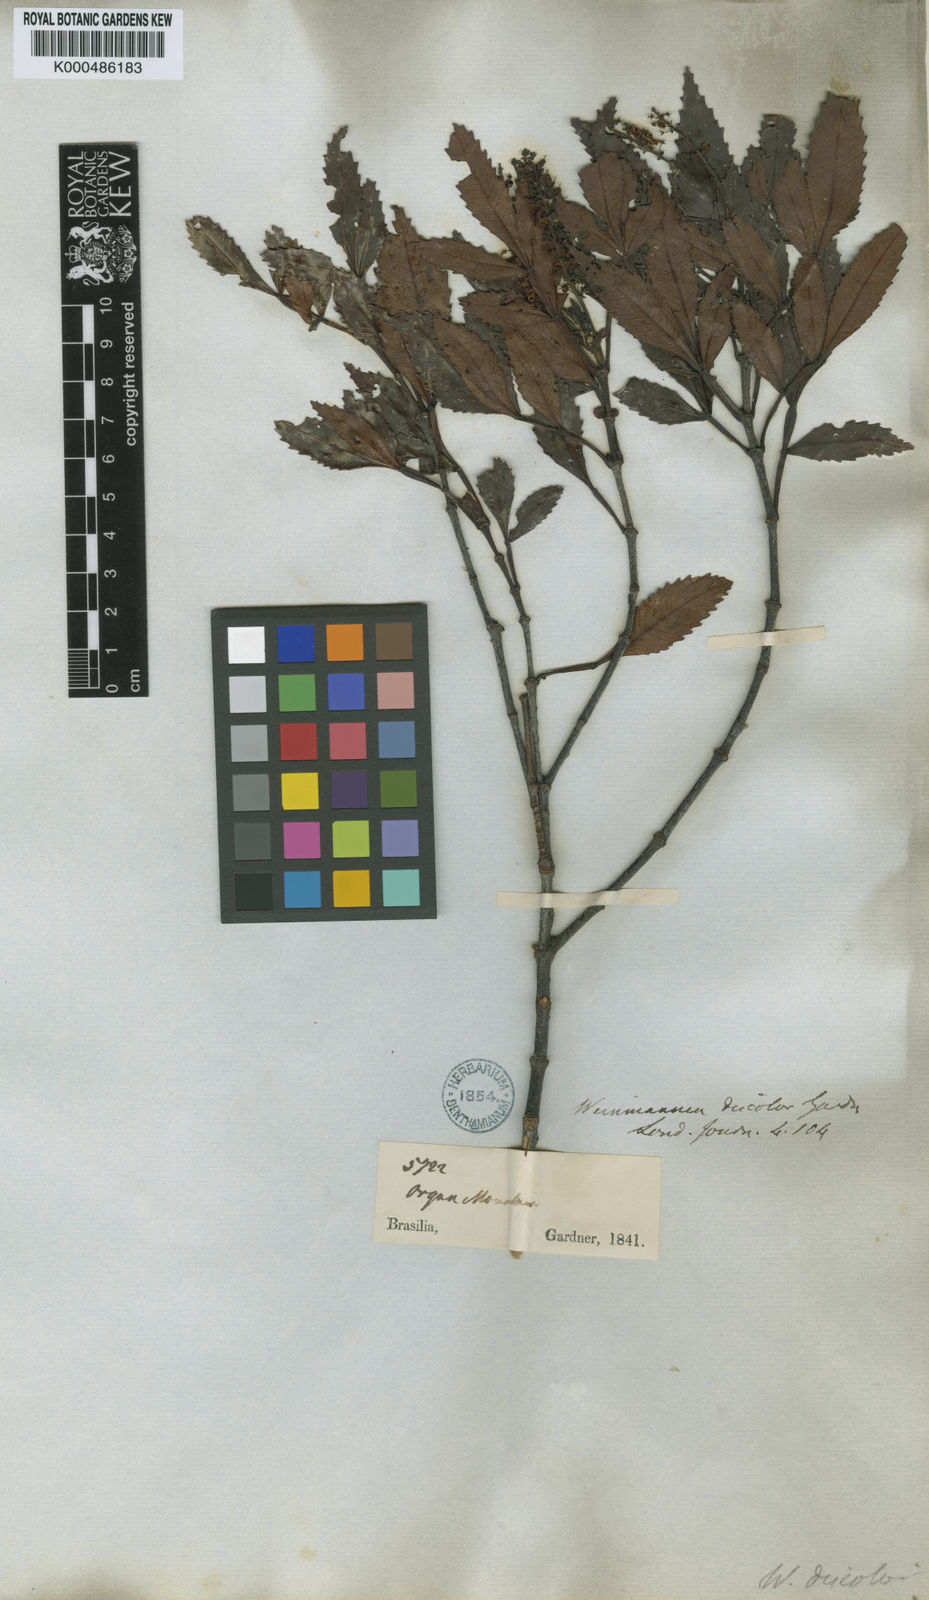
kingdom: Plantae
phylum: Tracheophyta
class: Magnoliopsida
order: Oxalidales
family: Cunoniaceae
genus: Weinmannia
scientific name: Weinmannia discolor
